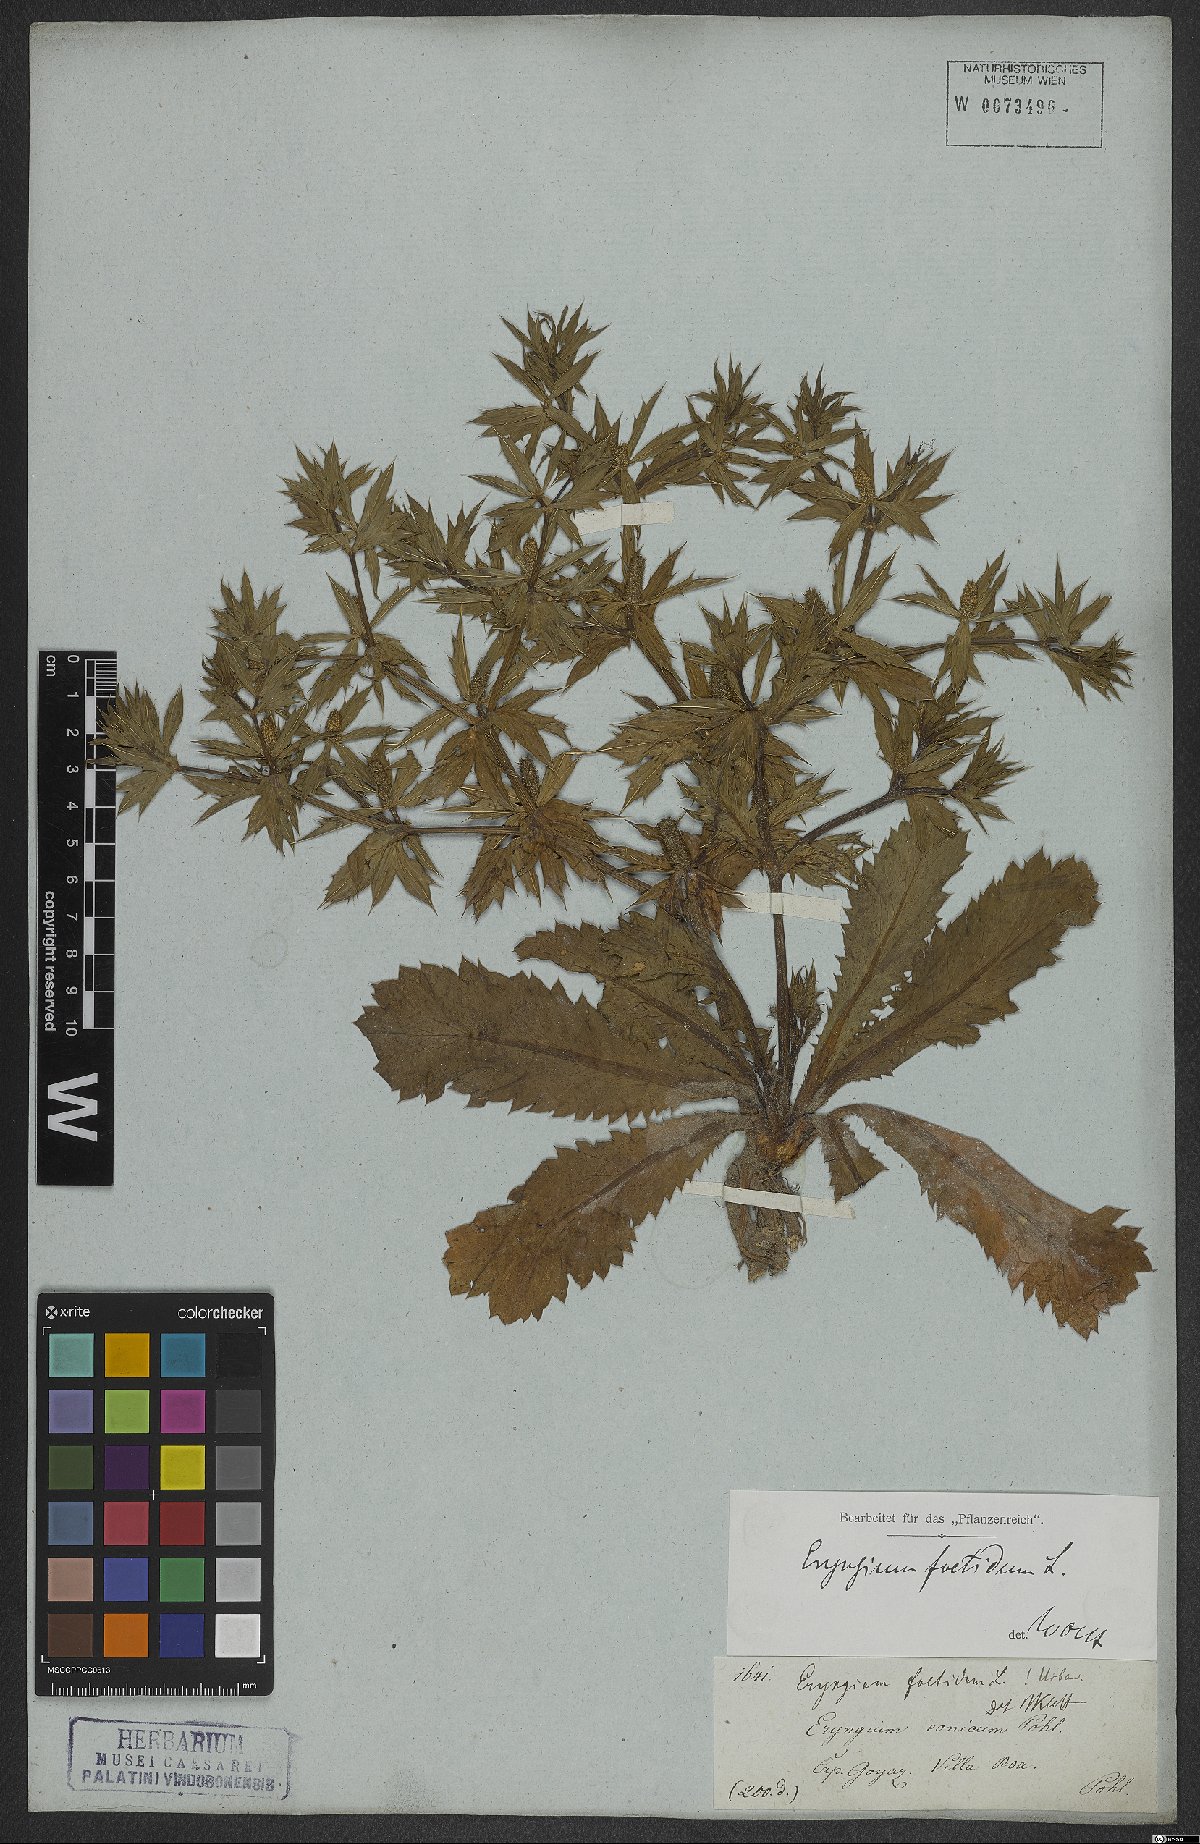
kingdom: Plantae
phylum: Tracheophyta
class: Magnoliopsida
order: Apiales
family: Apiaceae
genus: Eryngium
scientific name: Eryngium foetidum
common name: Fitweed
